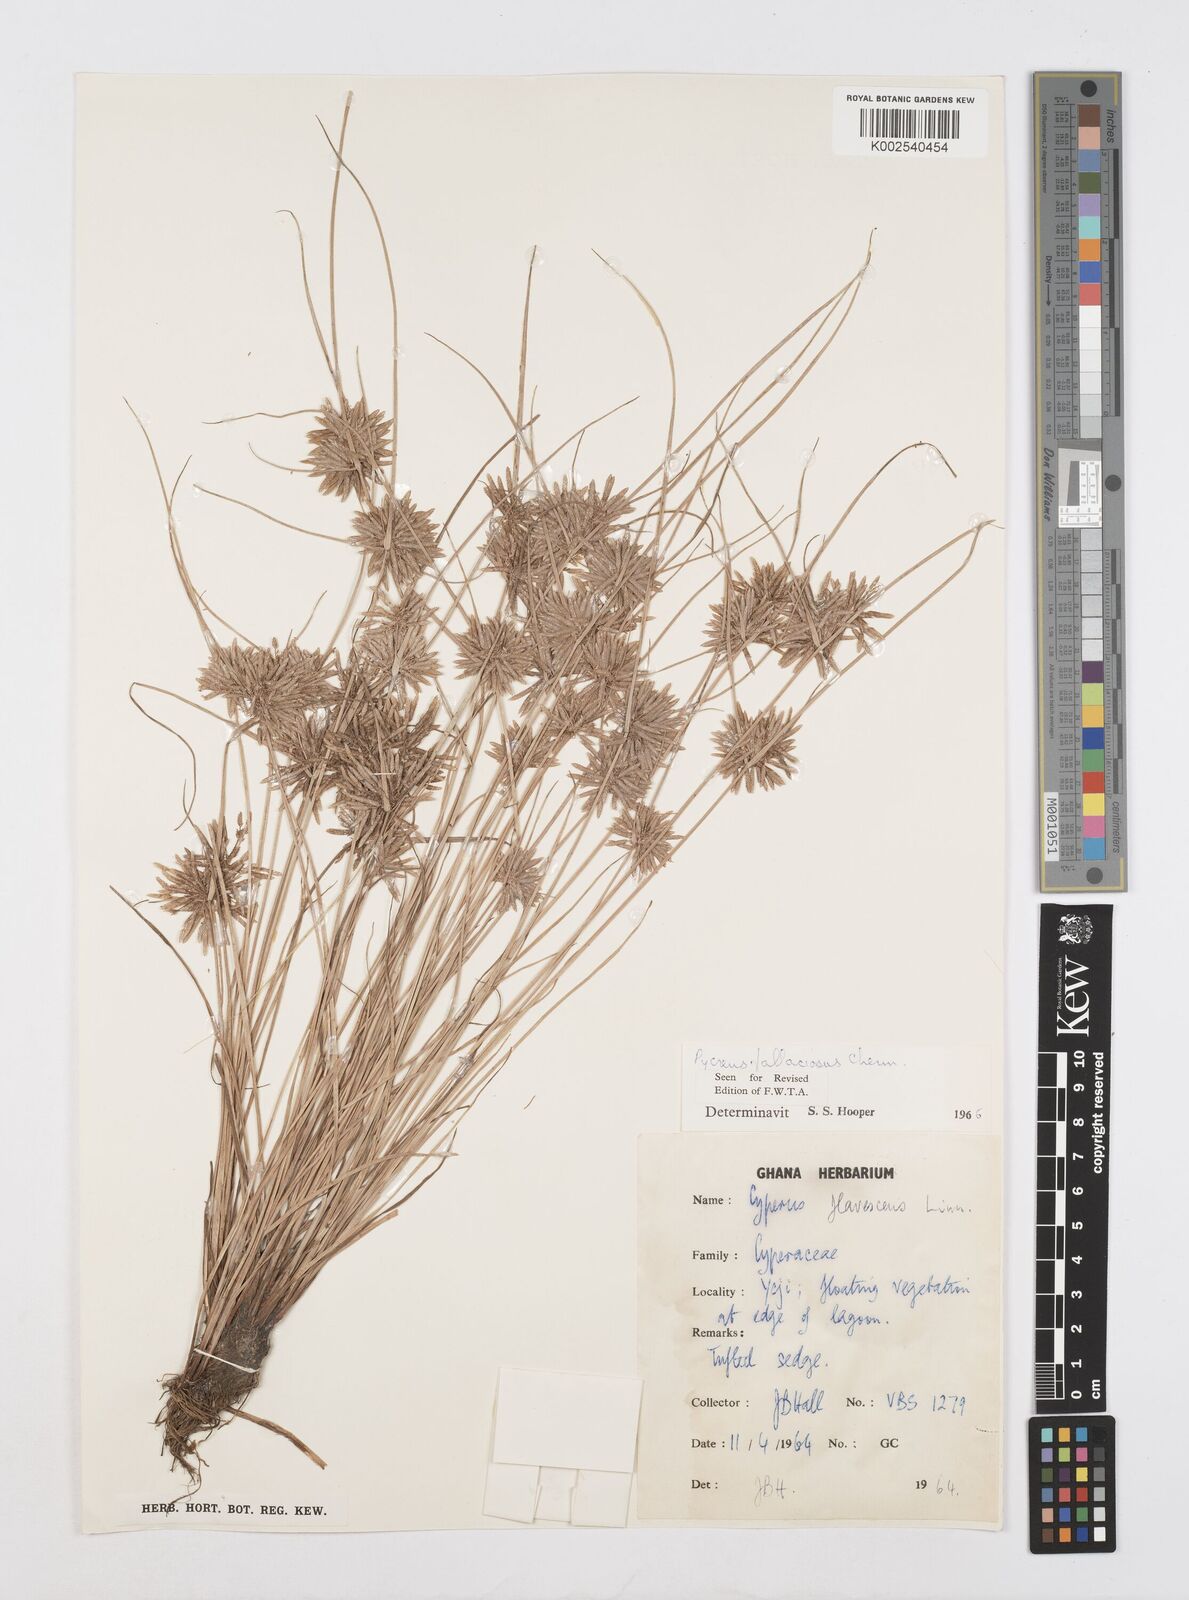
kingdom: Plantae
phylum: Tracheophyta
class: Liliopsida
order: Poales
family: Cyperaceae
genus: Cyperus
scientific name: Cyperus flavescens
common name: Yellow galingale
